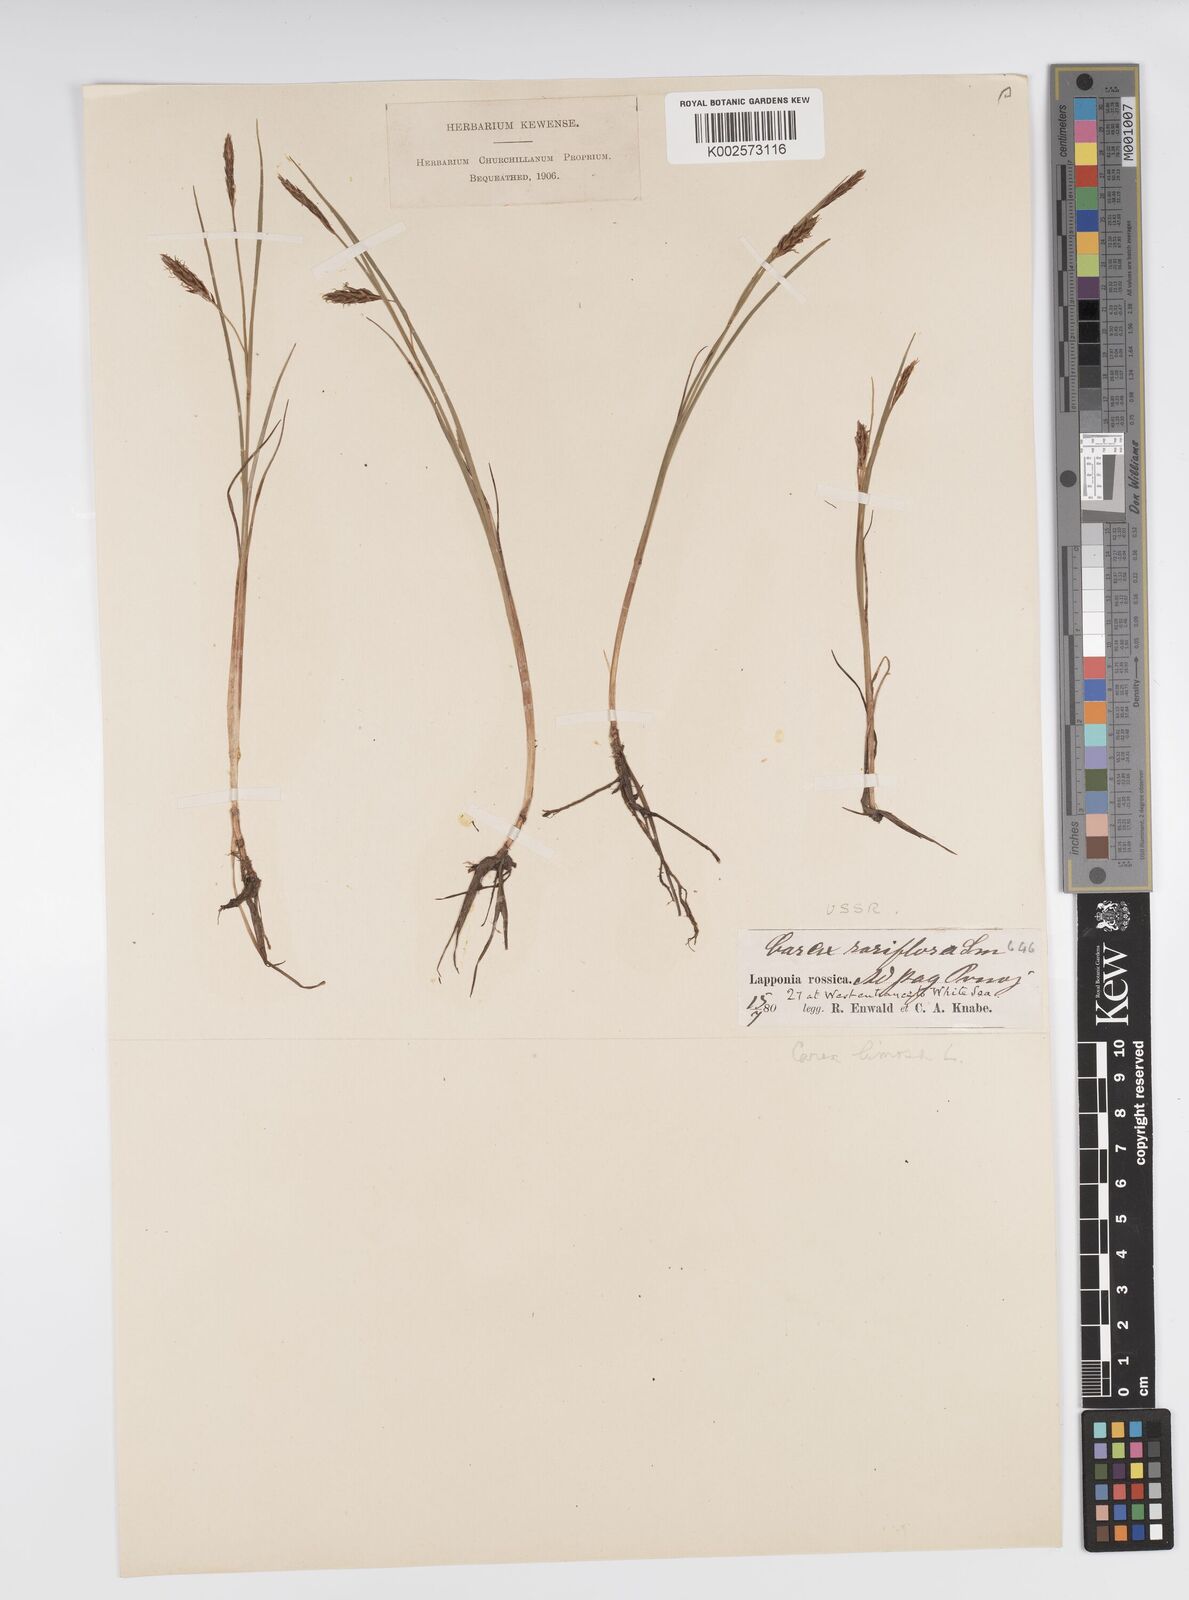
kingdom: Plantae
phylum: Tracheophyta
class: Liliopsida
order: Poales
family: Cyperaceae
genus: Carex
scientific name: Carex limosa
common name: Bog sedge
